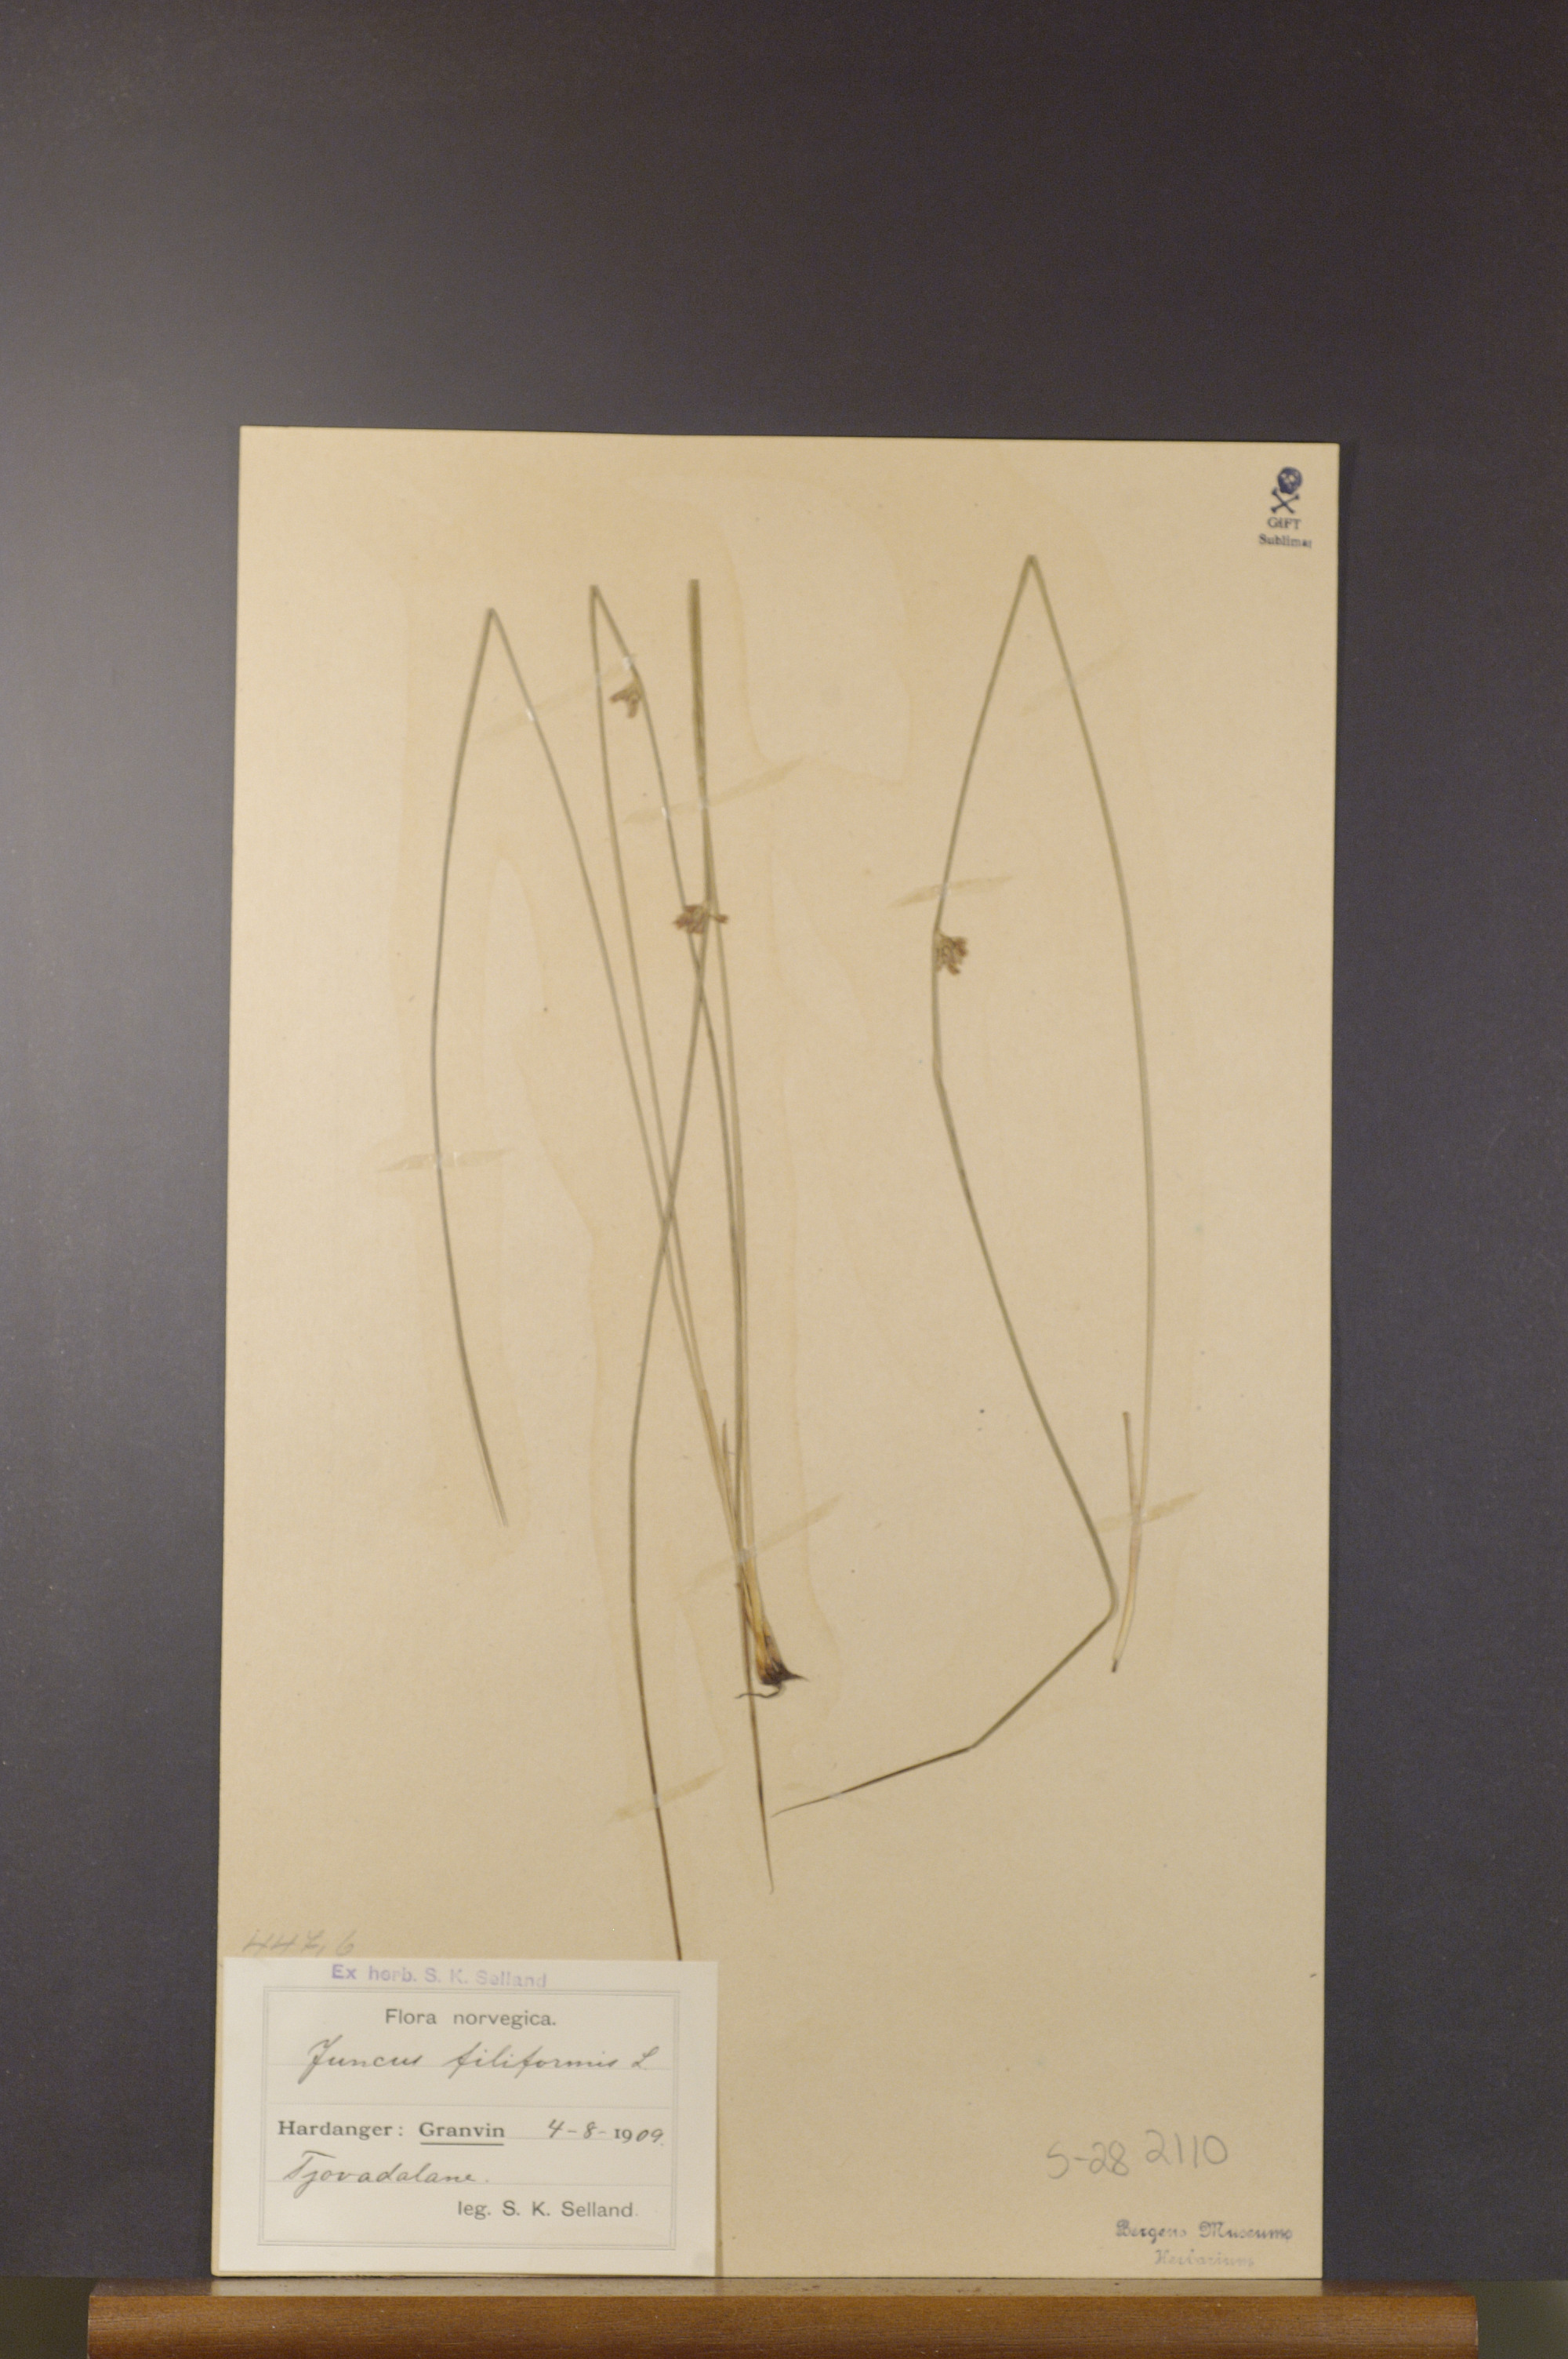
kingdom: Plantae
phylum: Tracheophyta
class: Liliopsida
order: Poales
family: Juncaceae
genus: Juncus
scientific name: Juncus filiformis
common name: Thread rush
